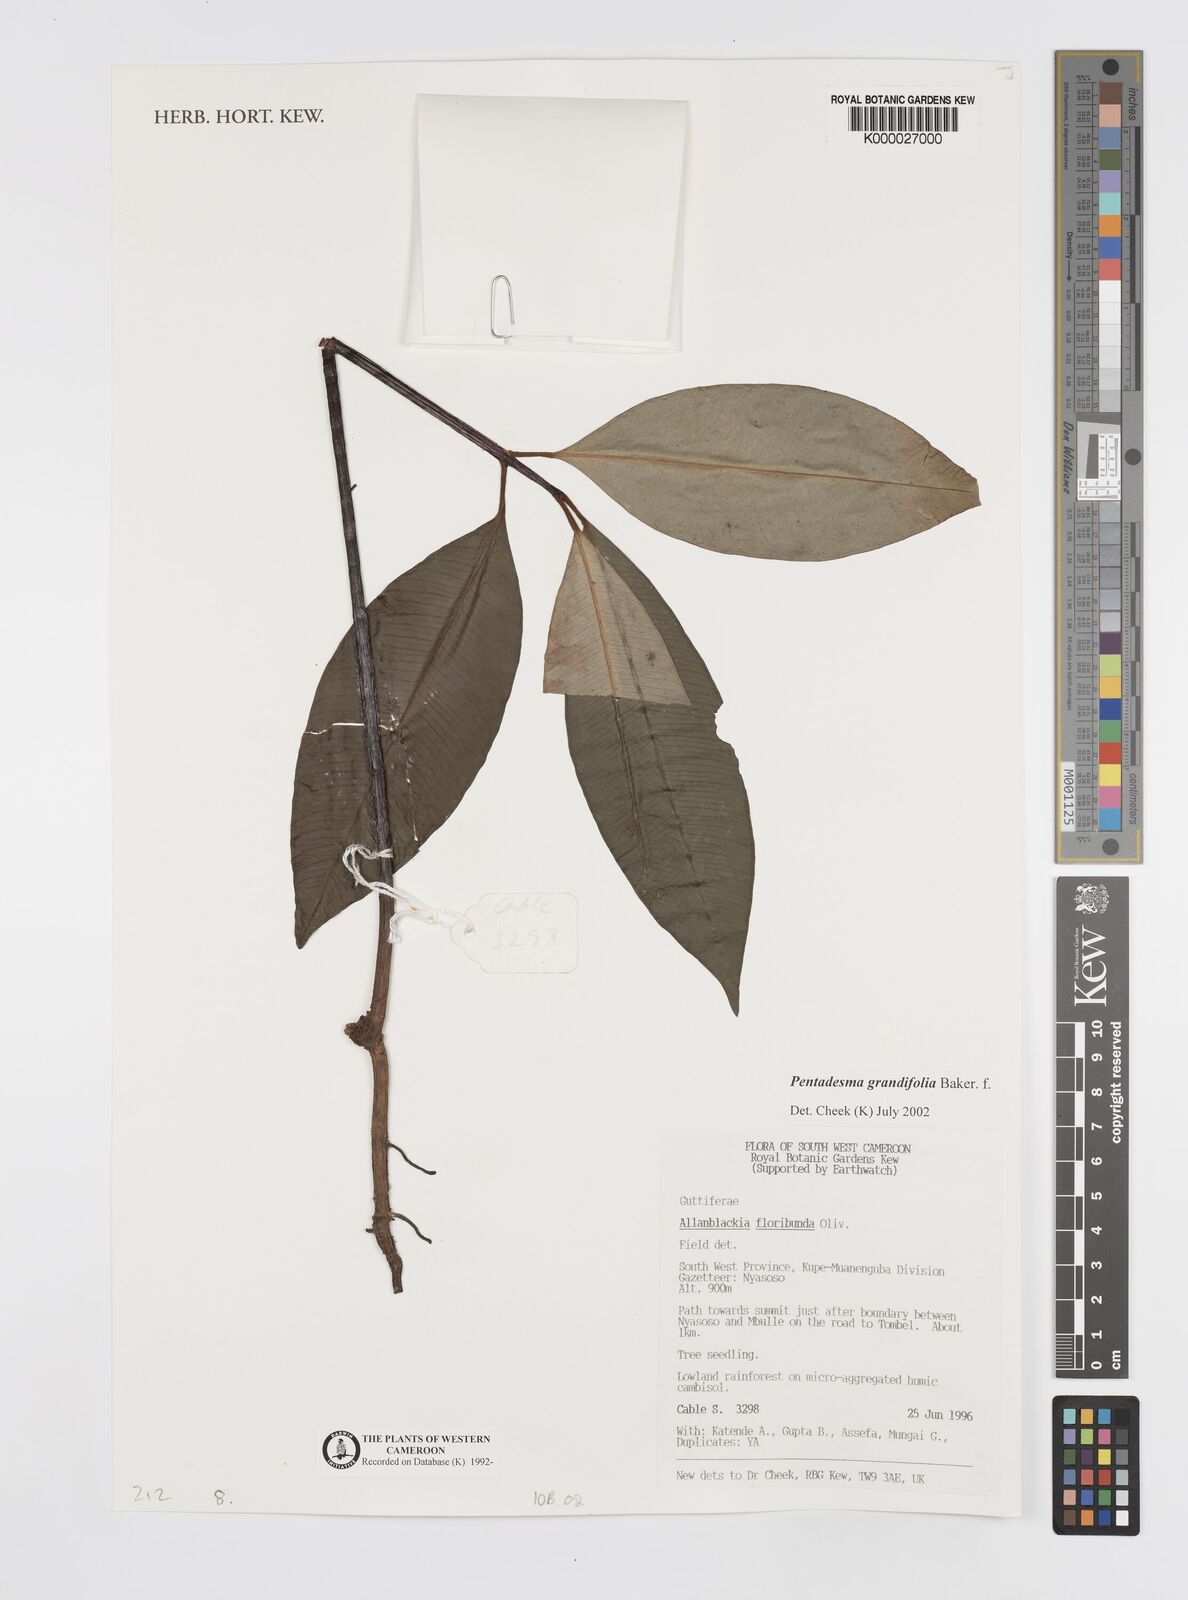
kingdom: Plantae
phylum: Tracheophyta
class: Magnoliopsida
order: Malpighiales
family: Clusiaceae
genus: Pentadesma
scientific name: Pentadesma grandifolia
